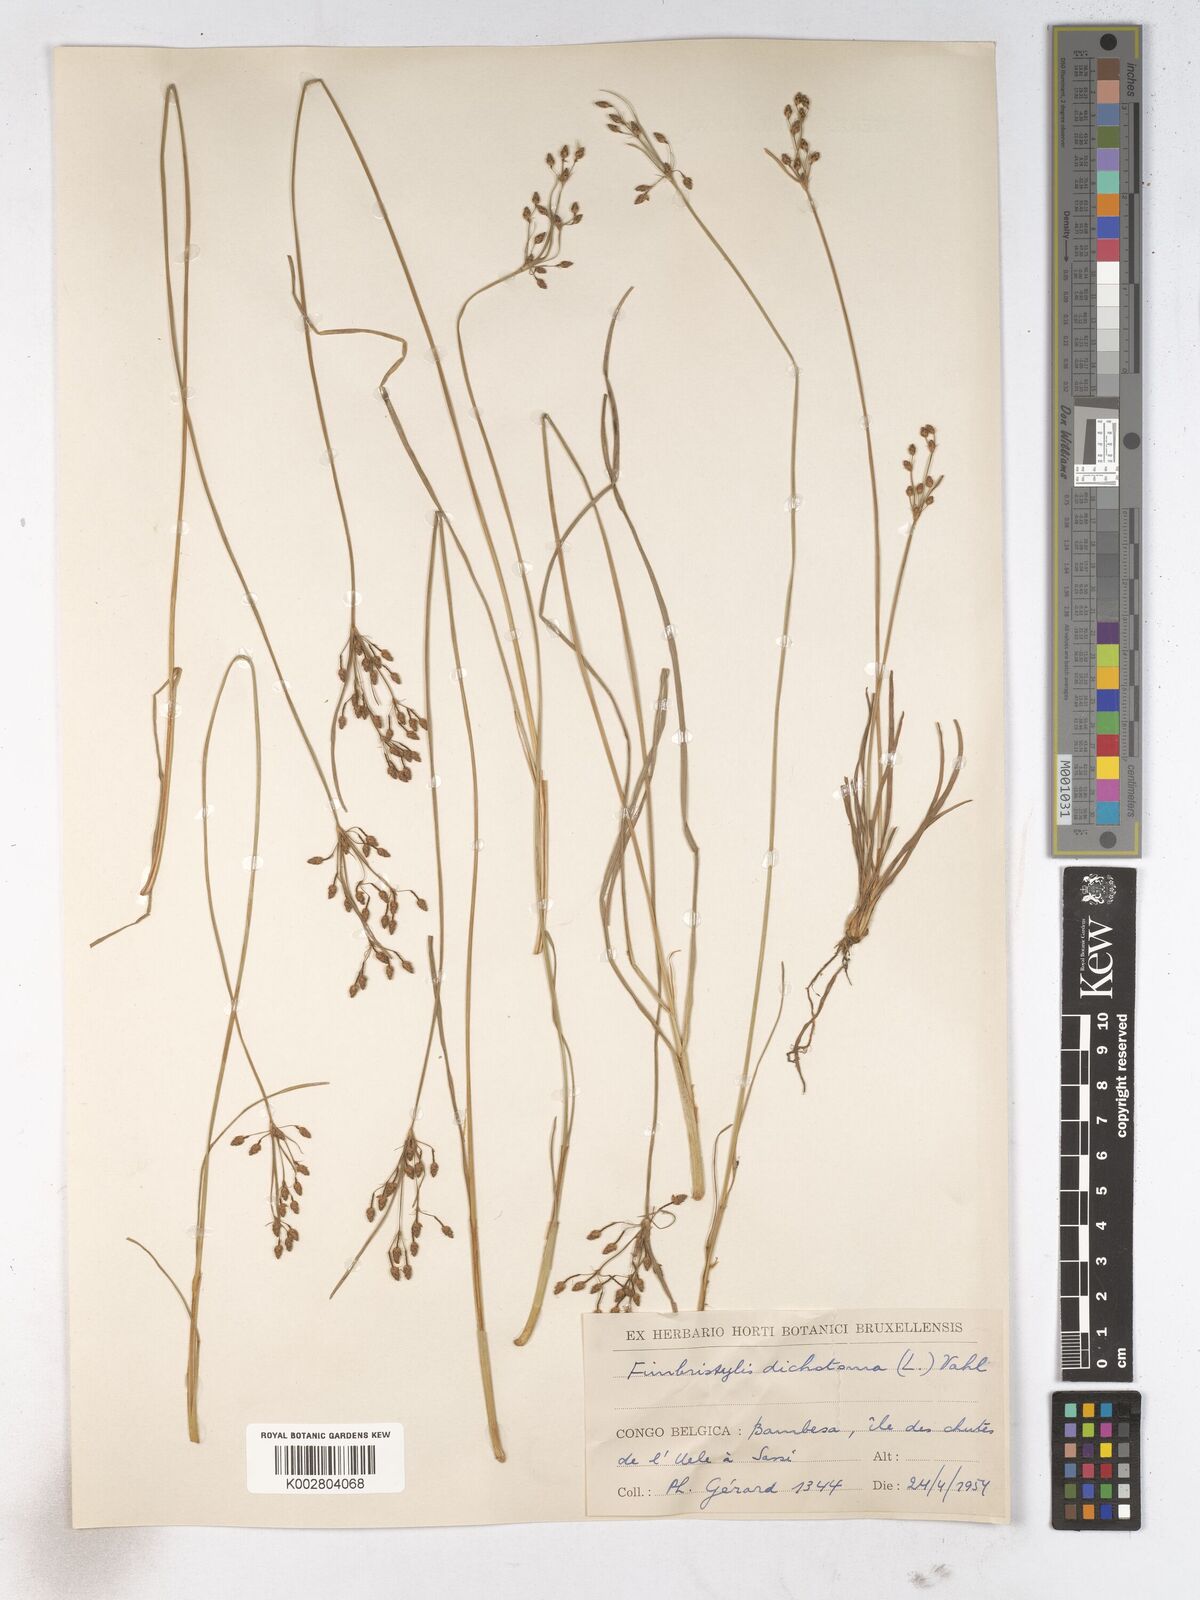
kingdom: Plantae
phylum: Tracheophyta
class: Liliopsida
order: Poales
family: Cyperaceae
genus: Fimbristylis
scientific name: Fimbristylis dichotoma
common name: Forked fimbry
